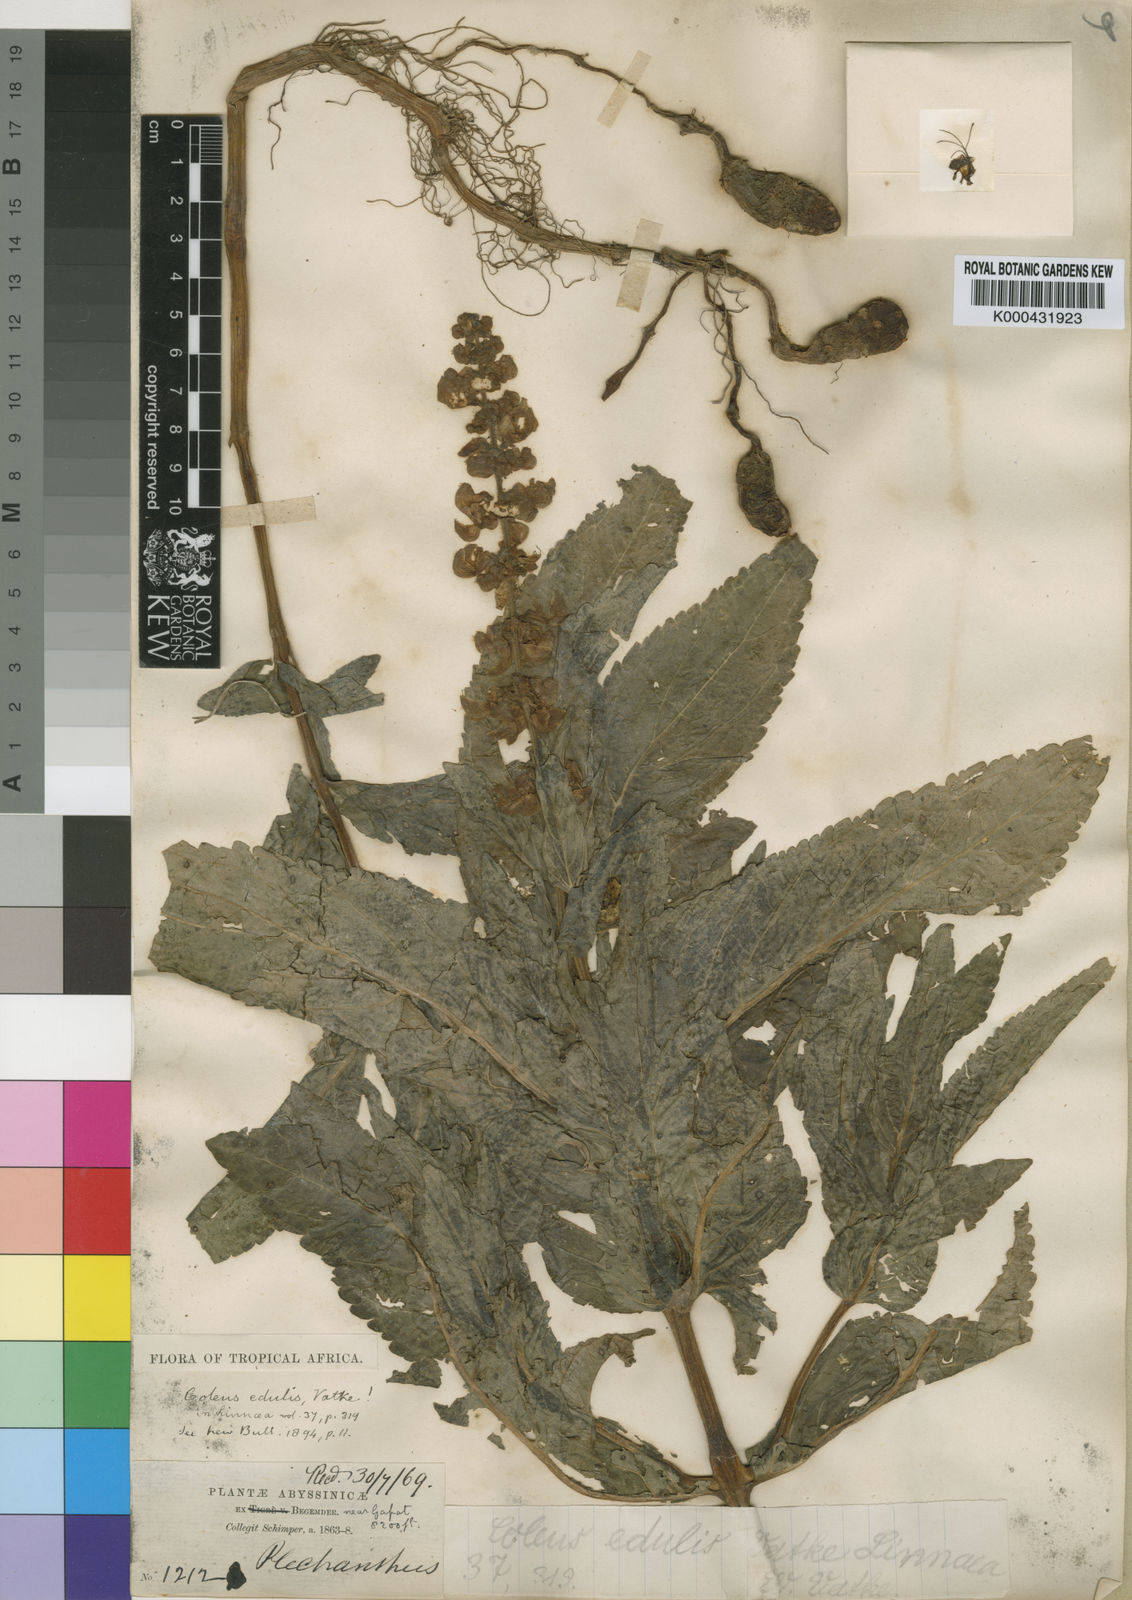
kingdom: Plantae
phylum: Tracheophyta
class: Magnoliopsida
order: Lamiales
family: Lamiaceae
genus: Coleus
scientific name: Coleus maculosus
